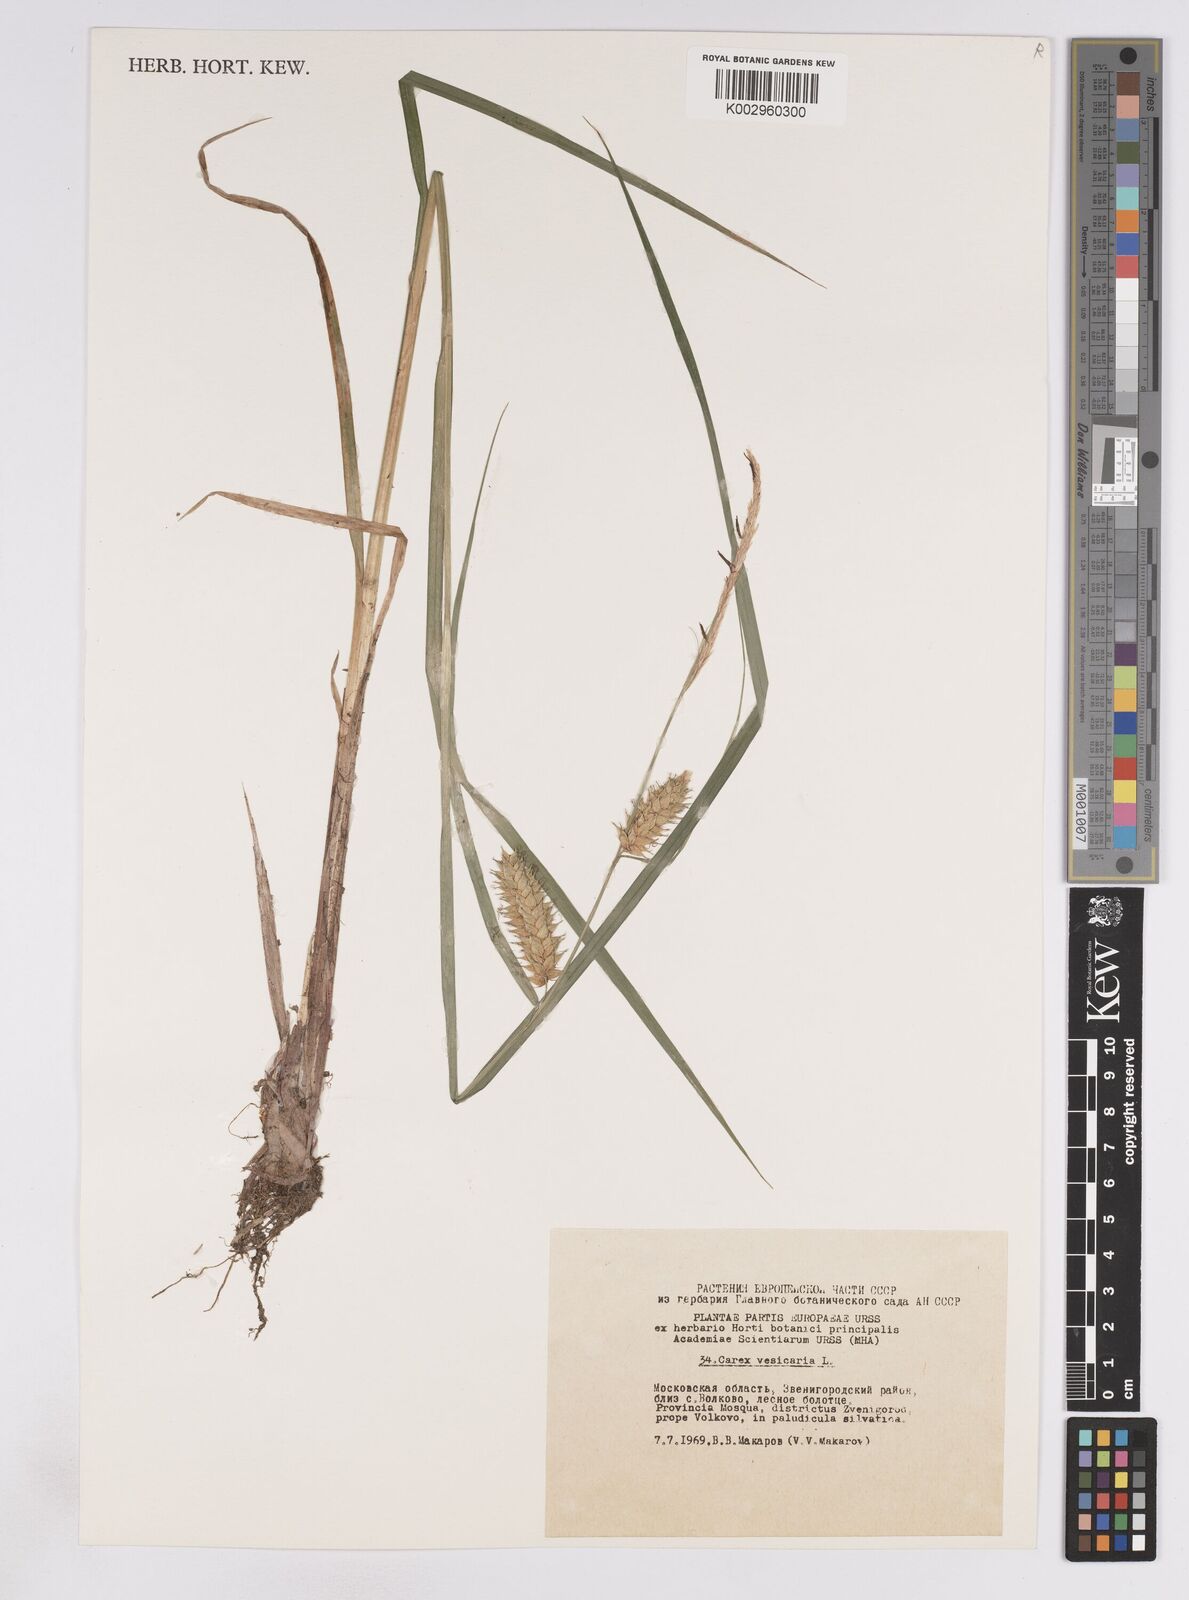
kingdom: Plantae
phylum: Tracheophyta
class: Liliopsida
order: Poales
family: Cyperaceae
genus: Carex
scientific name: Carex vesicaria
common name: Bladder-sedge
